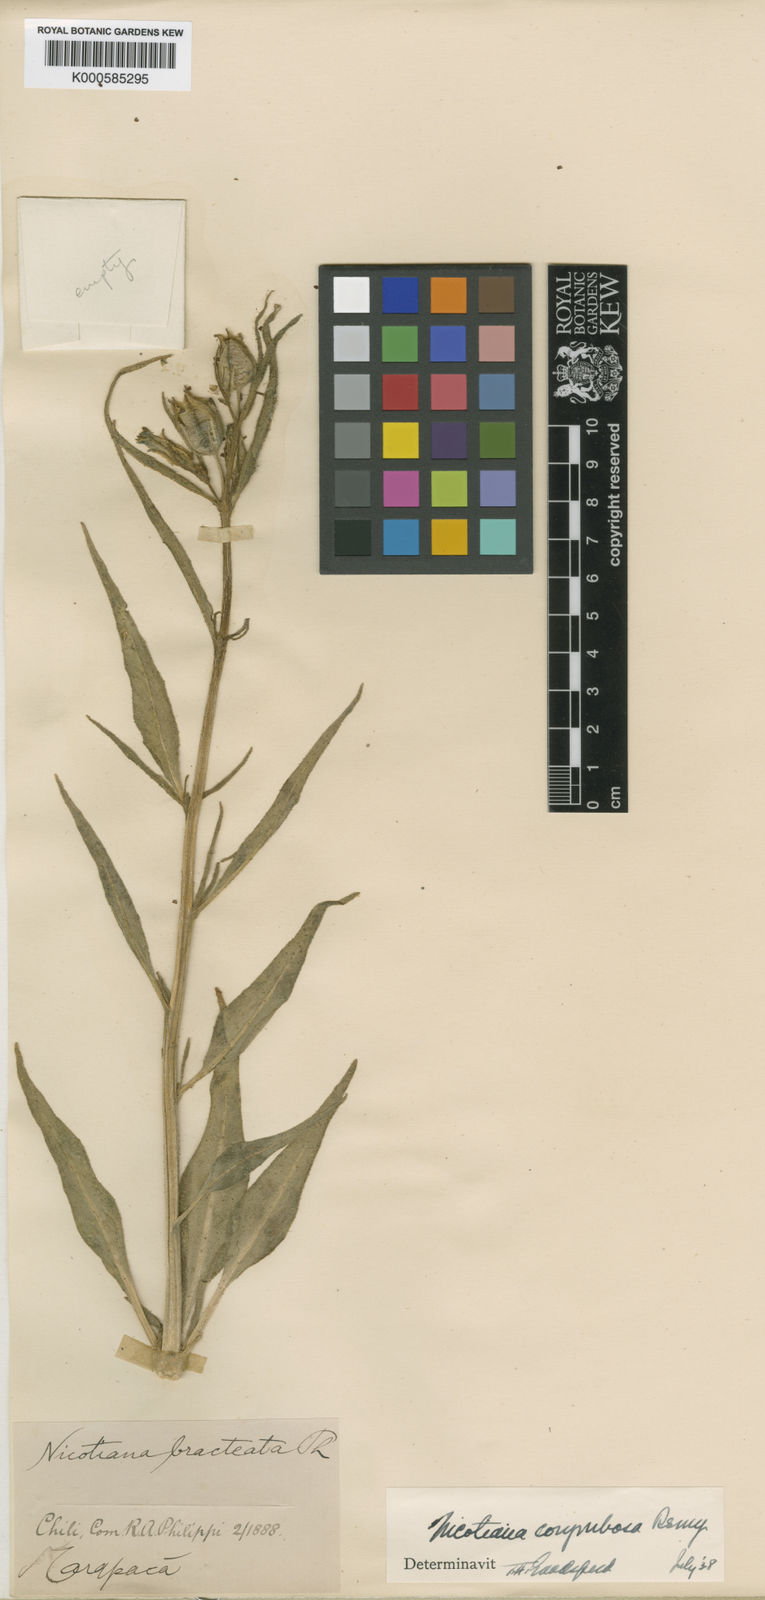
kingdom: Plantae
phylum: Tracheophyta
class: Magnoliopsida
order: Solanales
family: Solanaceae
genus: Nicotiana
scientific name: Nicotiana
